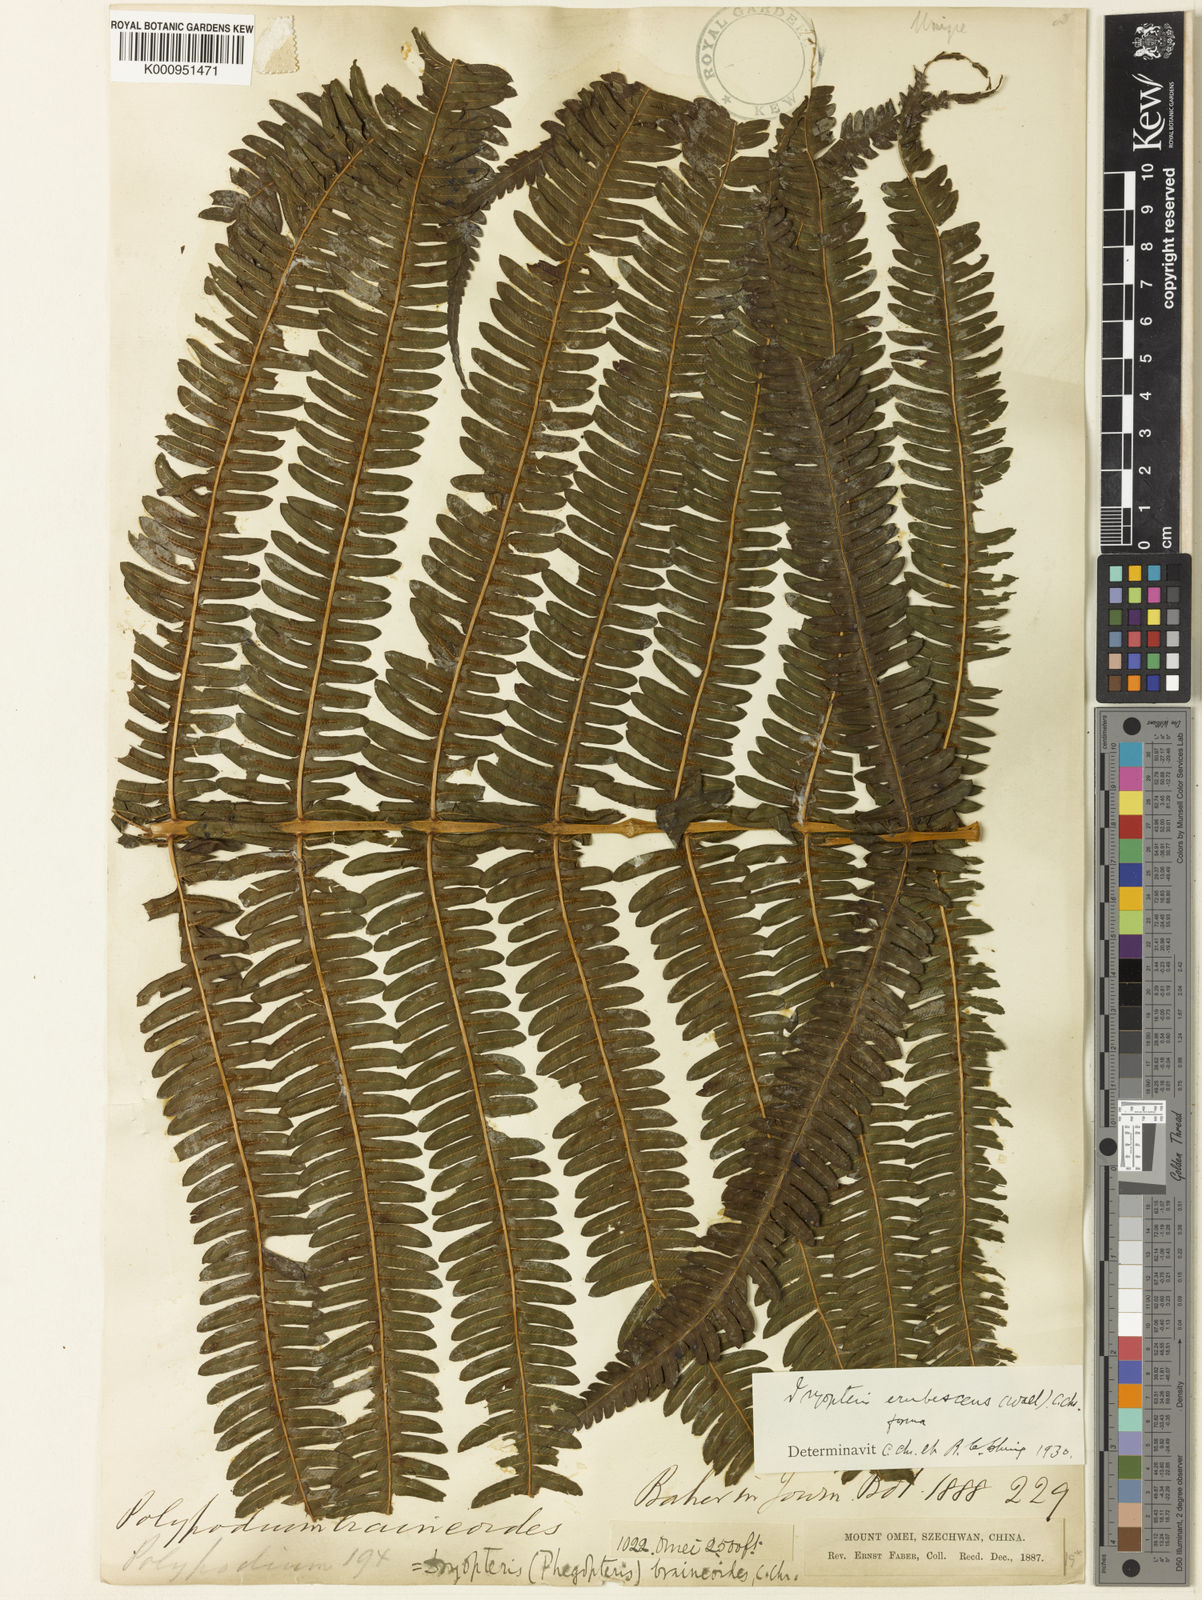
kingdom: Plantae
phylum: Tracheophyta
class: Polypodiopsida
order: Polypodiales
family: Thelypteridaceae
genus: Glaphyropteridopsis
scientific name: Glaphyropteridopsis erubescens
